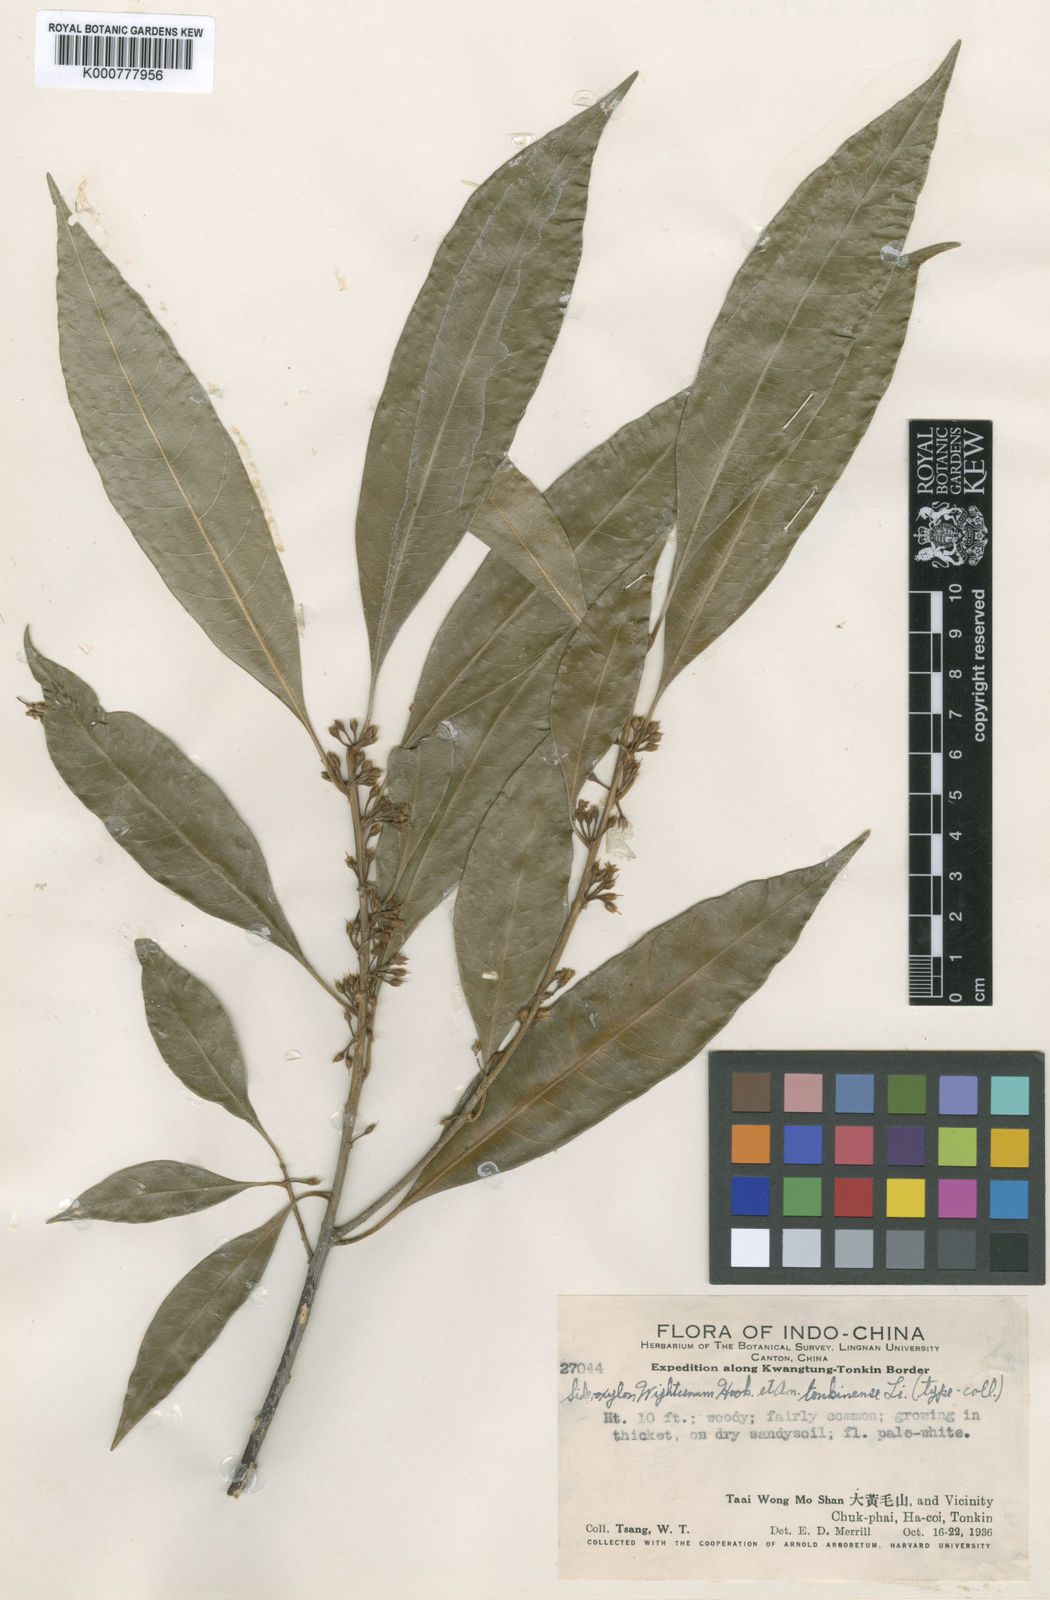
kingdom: Plantae
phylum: Tracheophyta
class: Magnoliopsida
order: Ericales
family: Sapotaceae
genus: Sideroxylon
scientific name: Sideroxylon wightianum
